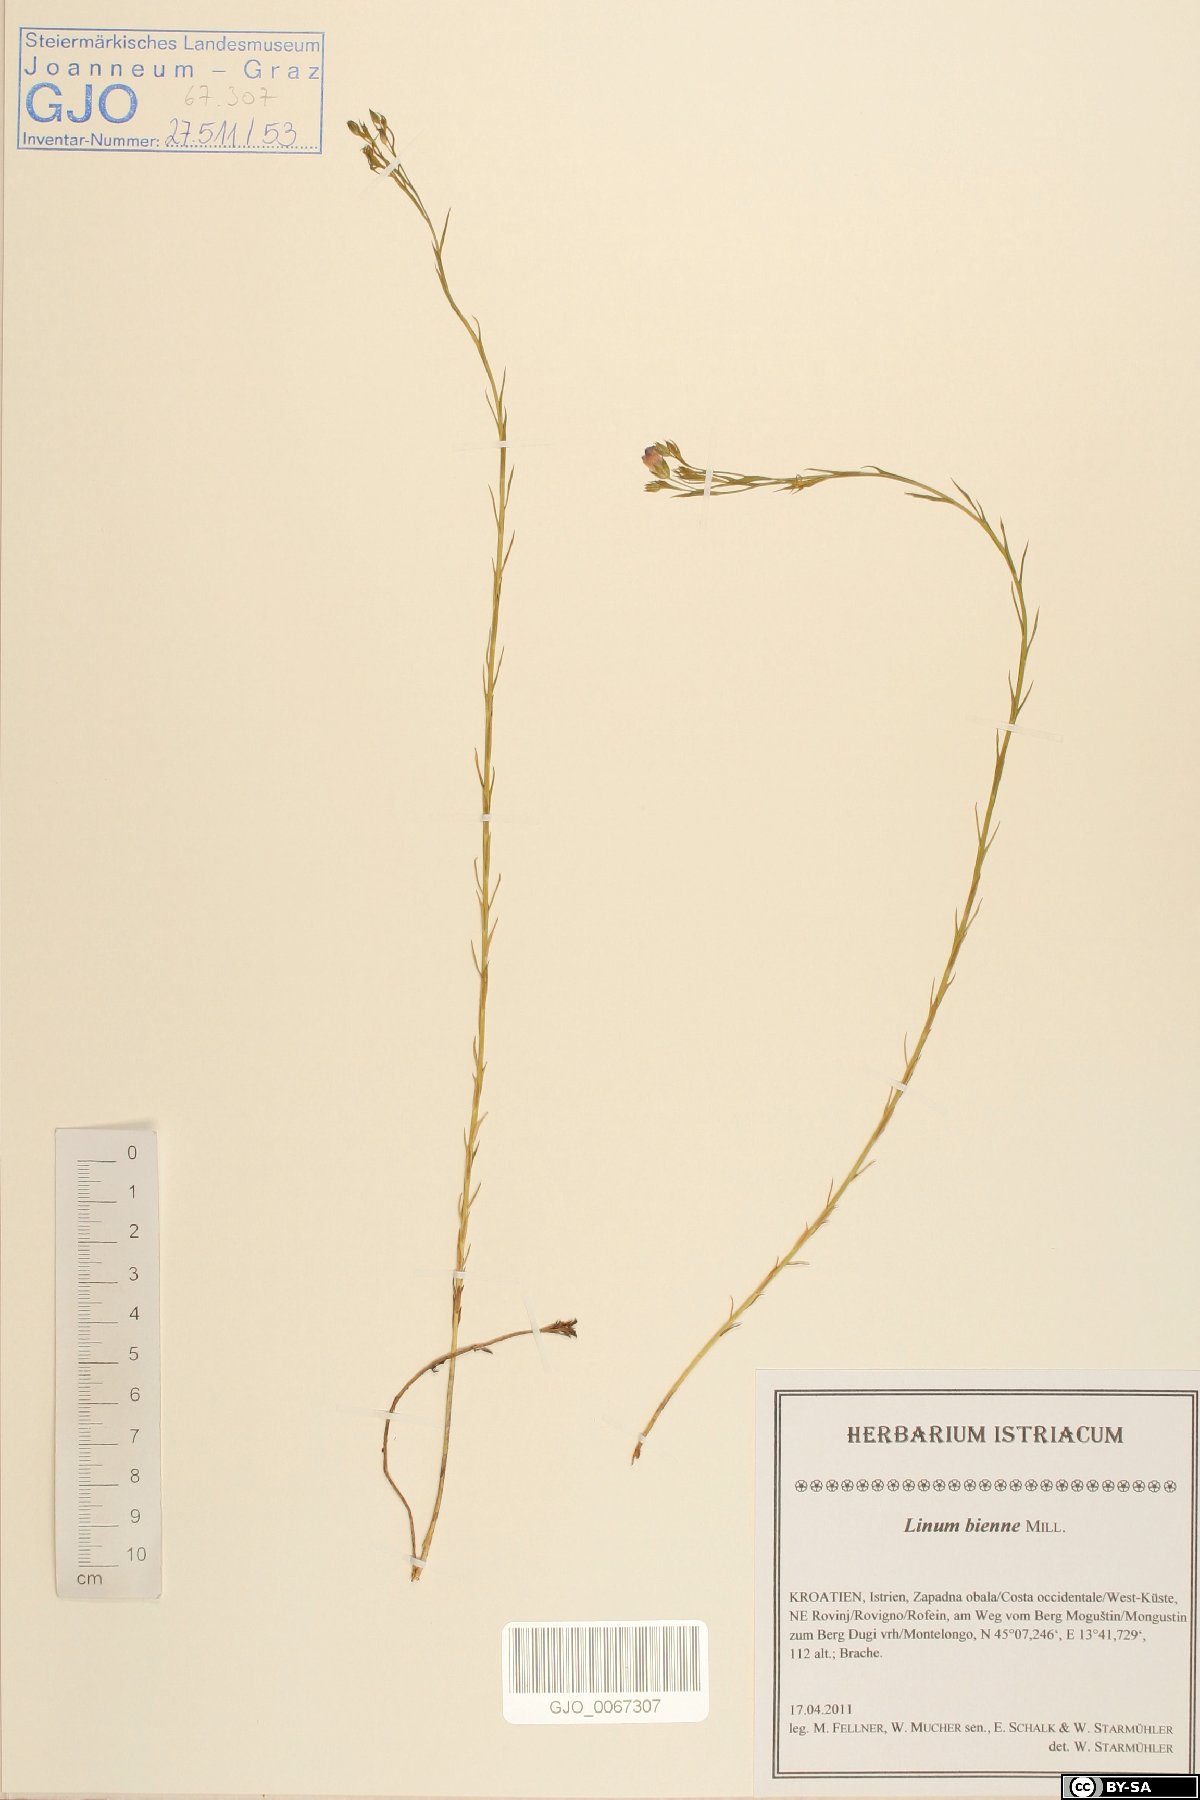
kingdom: Plantae
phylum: Tracheophyta
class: Magnoliopsida
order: Malpighiales
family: Linaceae
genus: Linum
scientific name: Linum bienne
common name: Pale flax
